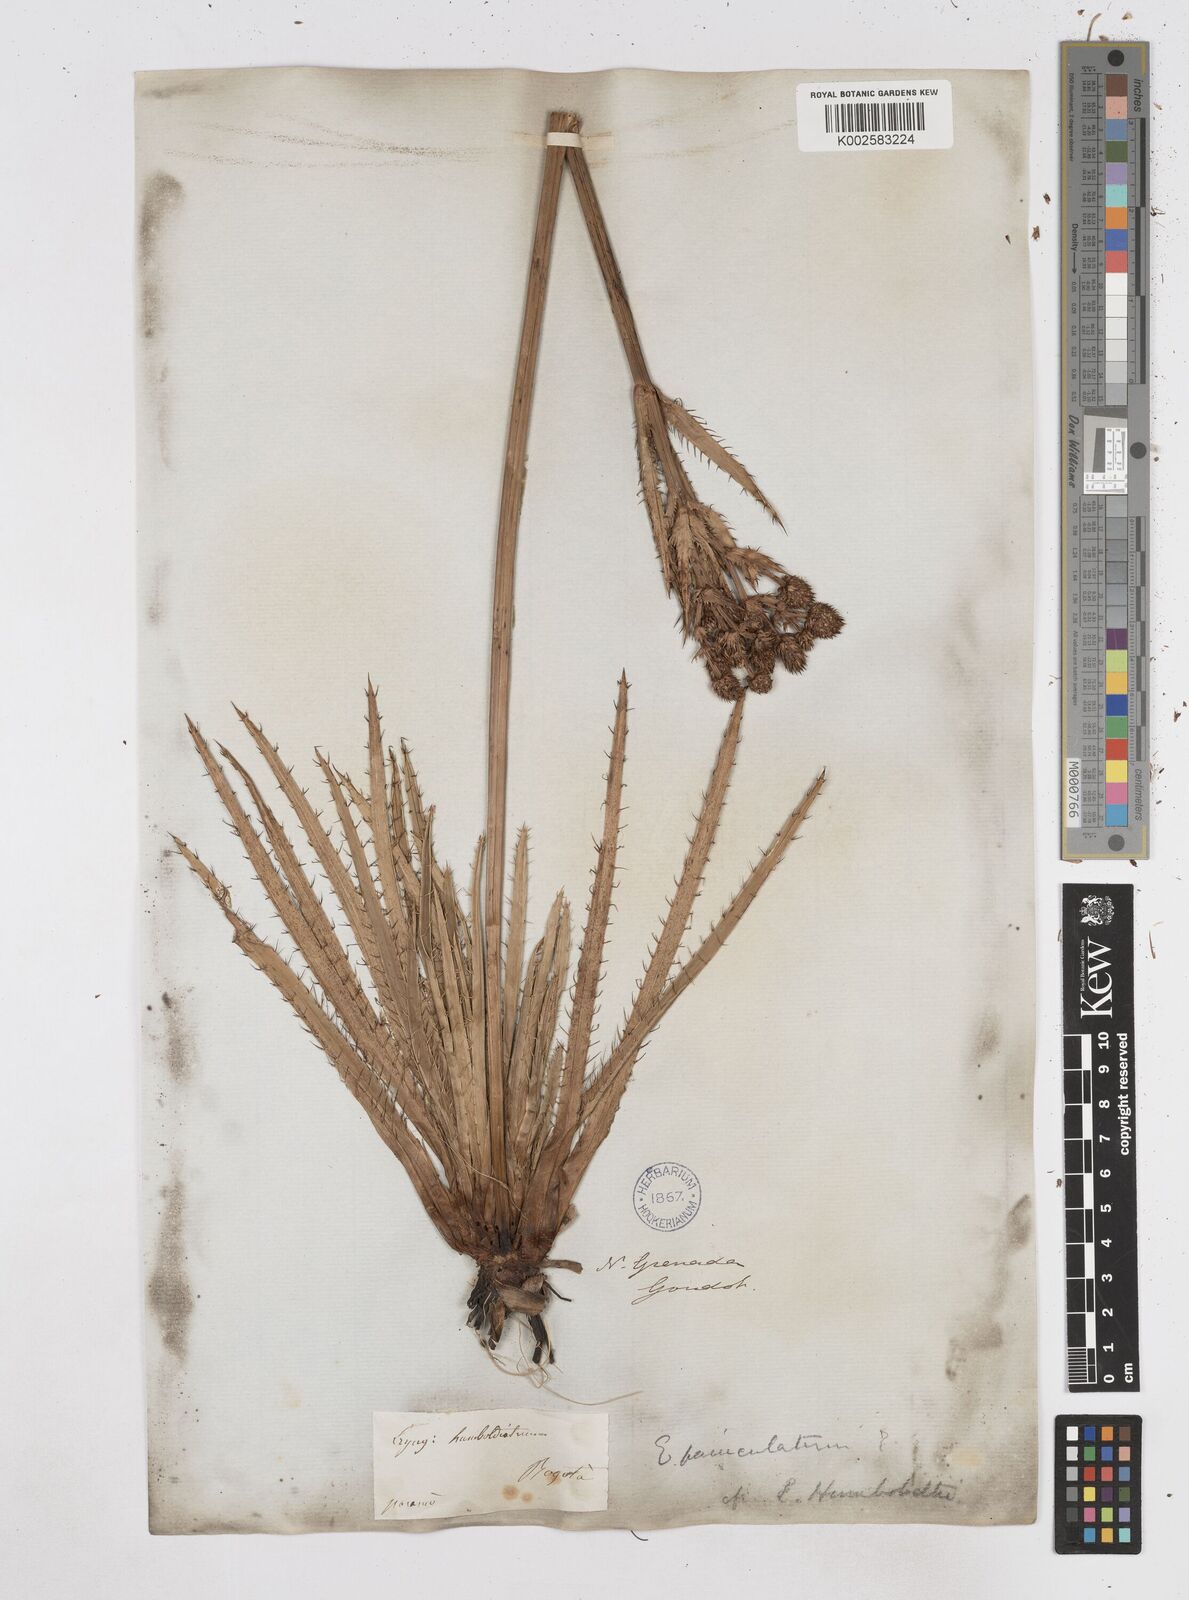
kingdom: Plantae
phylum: Tracheophyta
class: Magnoliopsida
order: Apiales
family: Apiaceae
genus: Eryngium
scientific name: Eryngium humboldtii
